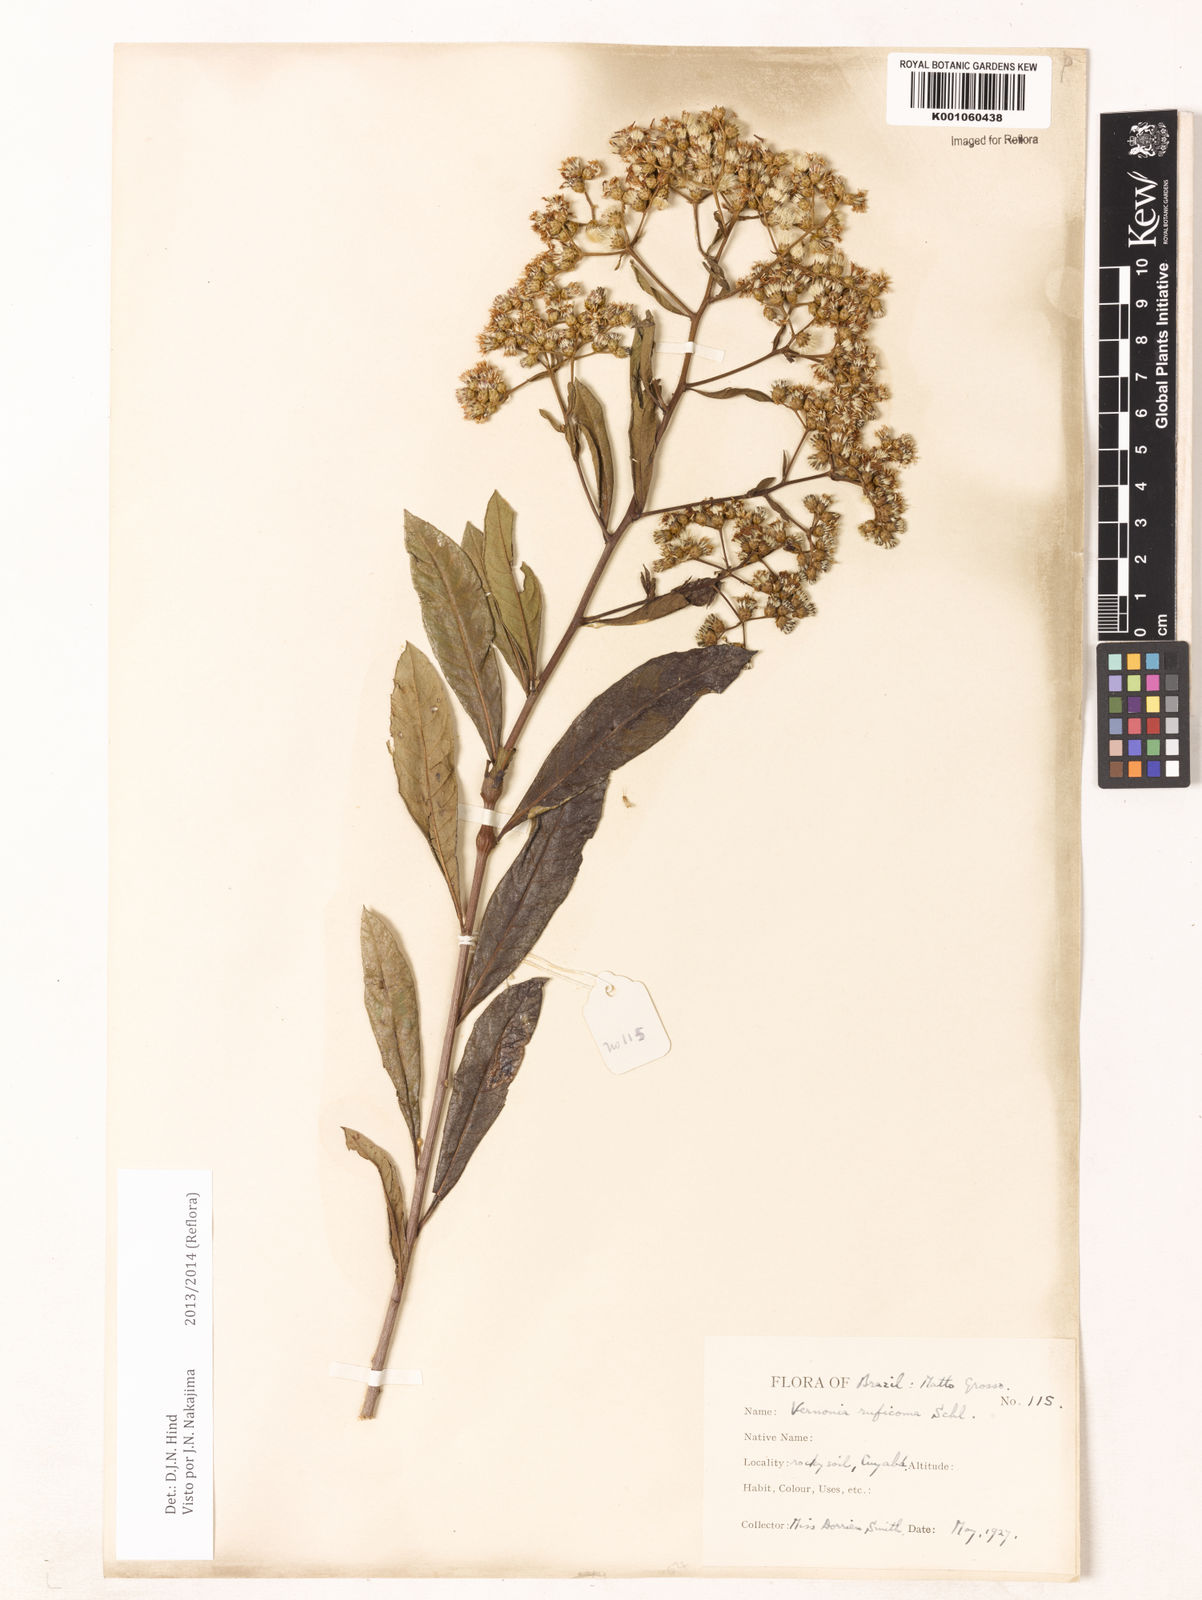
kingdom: Plantae
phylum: Tracheophyta
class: Magnoliopsida
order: Asterales
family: Asteraceae
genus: Vernonia
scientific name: Vernonia
